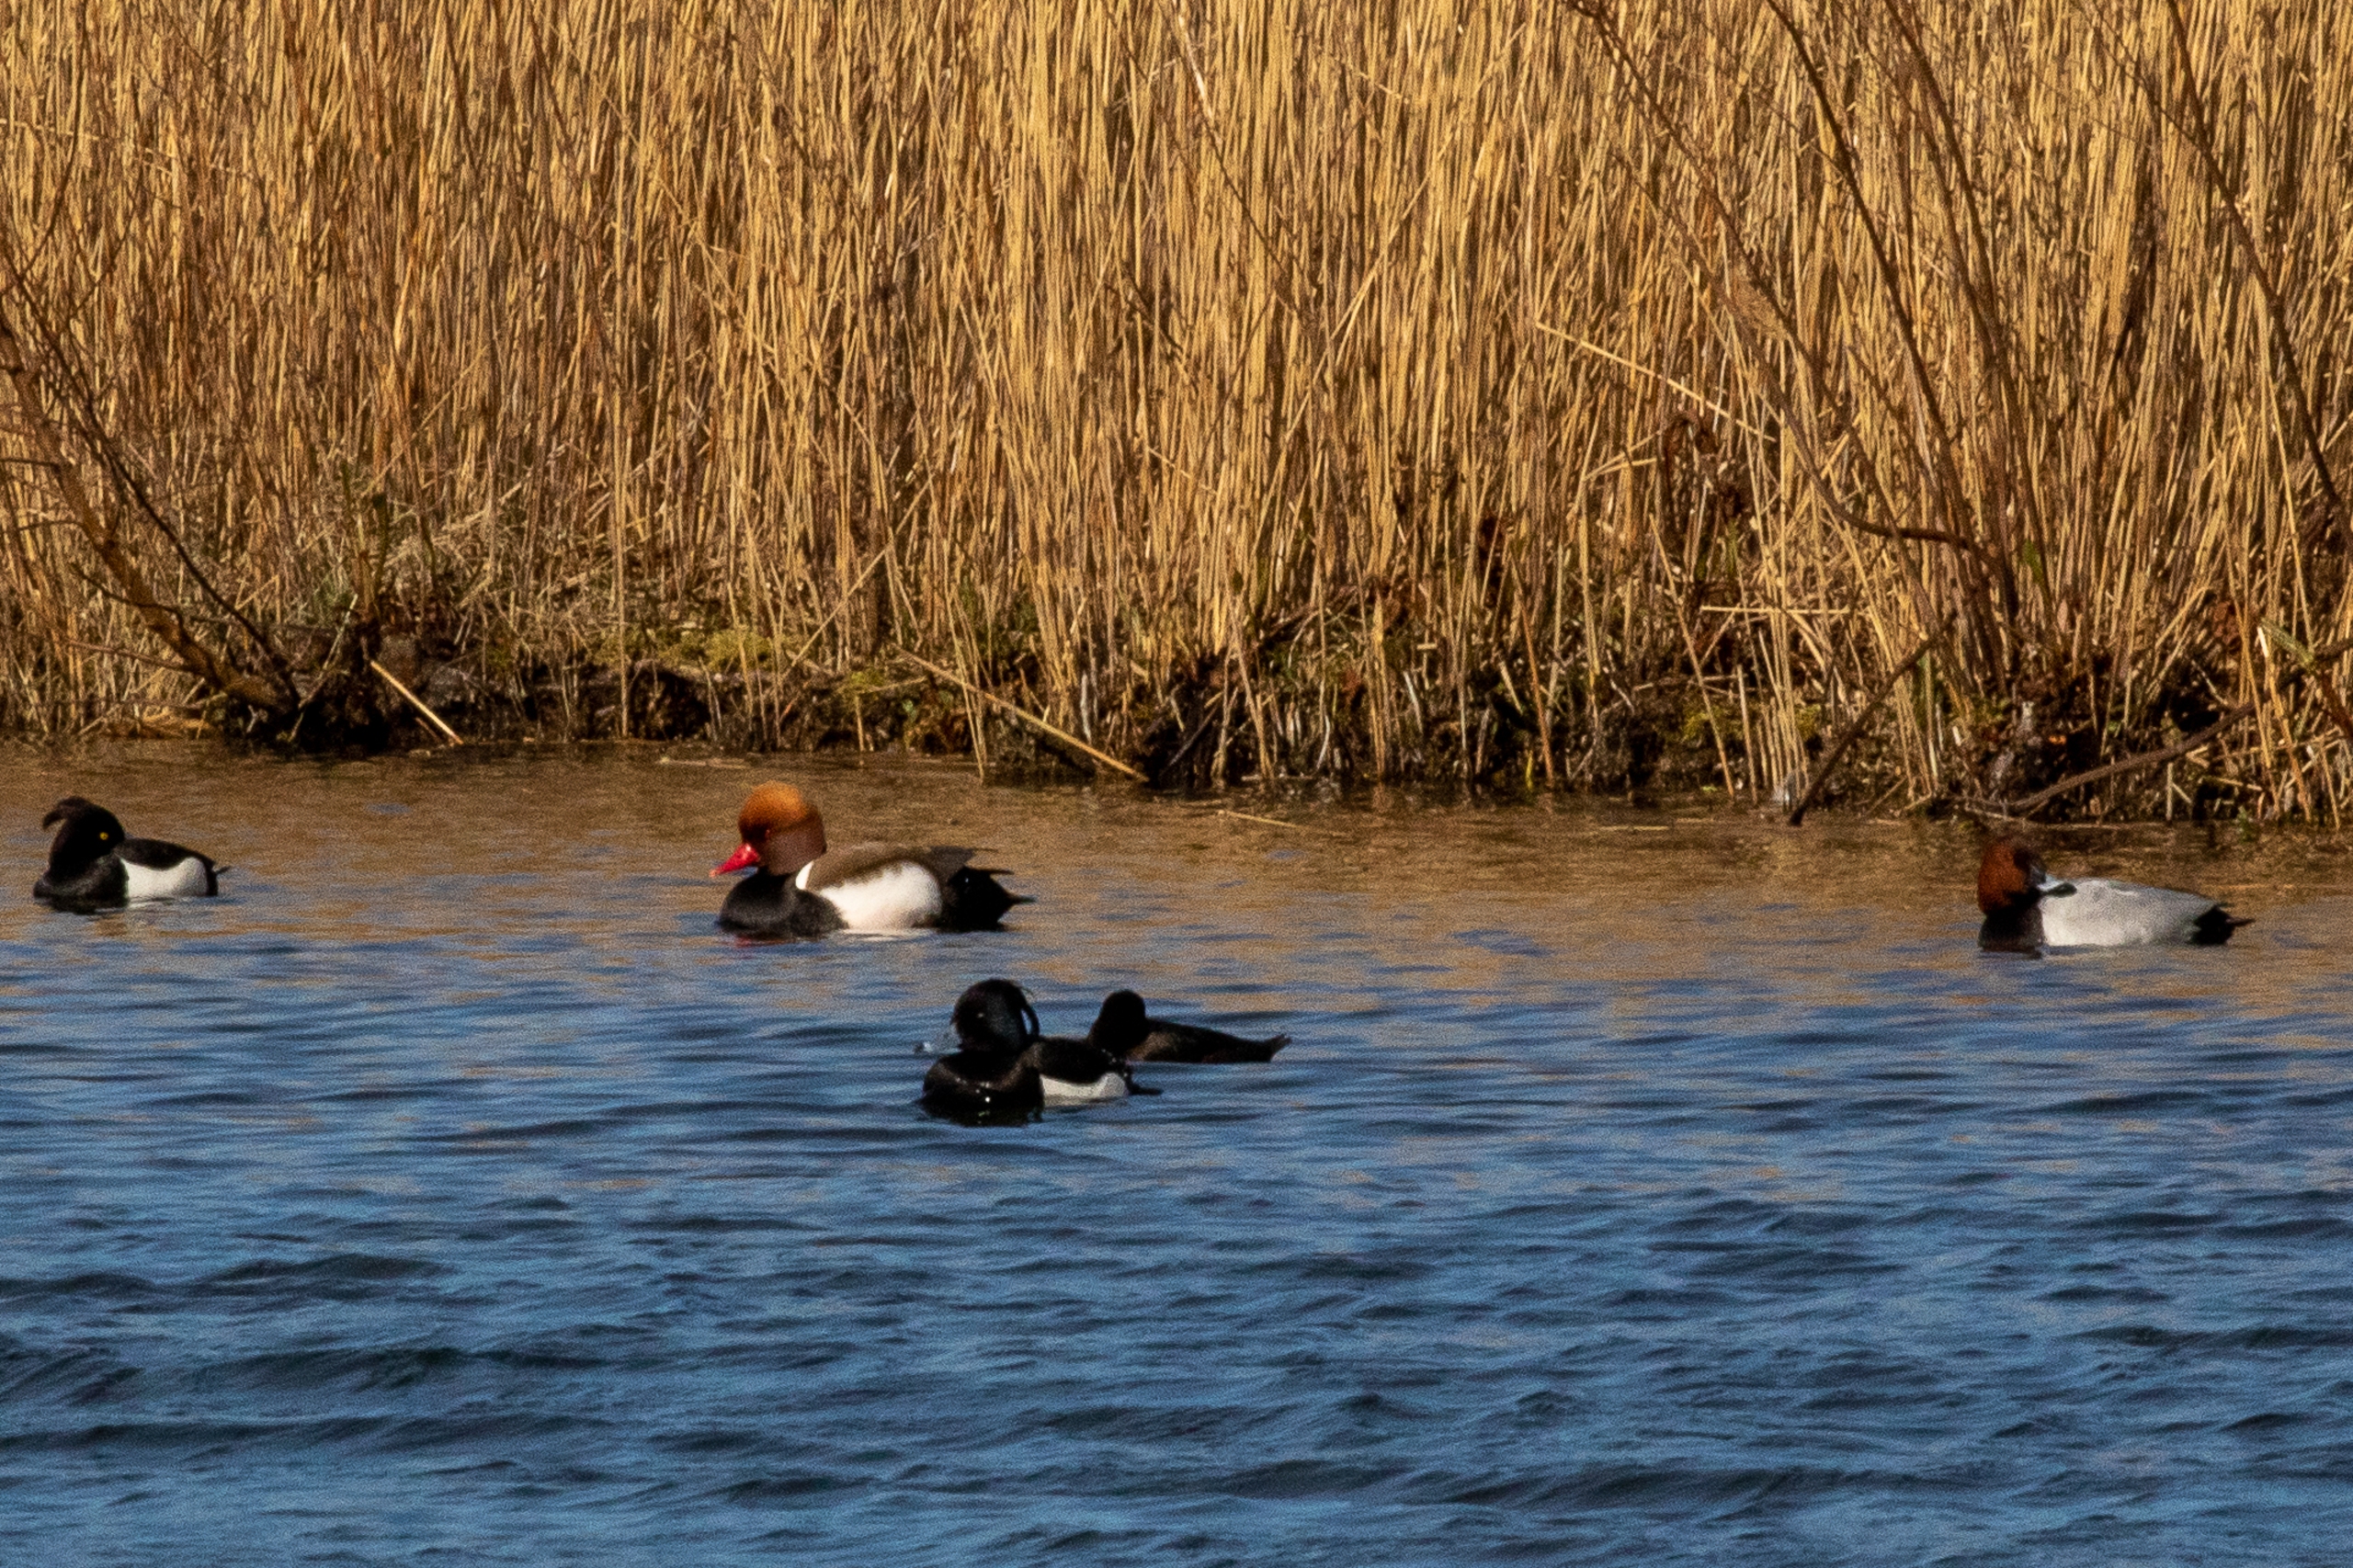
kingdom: Animalia
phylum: Chordata
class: Aves
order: Anseriformes
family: Anatidae
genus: Aythya
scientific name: Aythya ferina
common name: Taffeland
